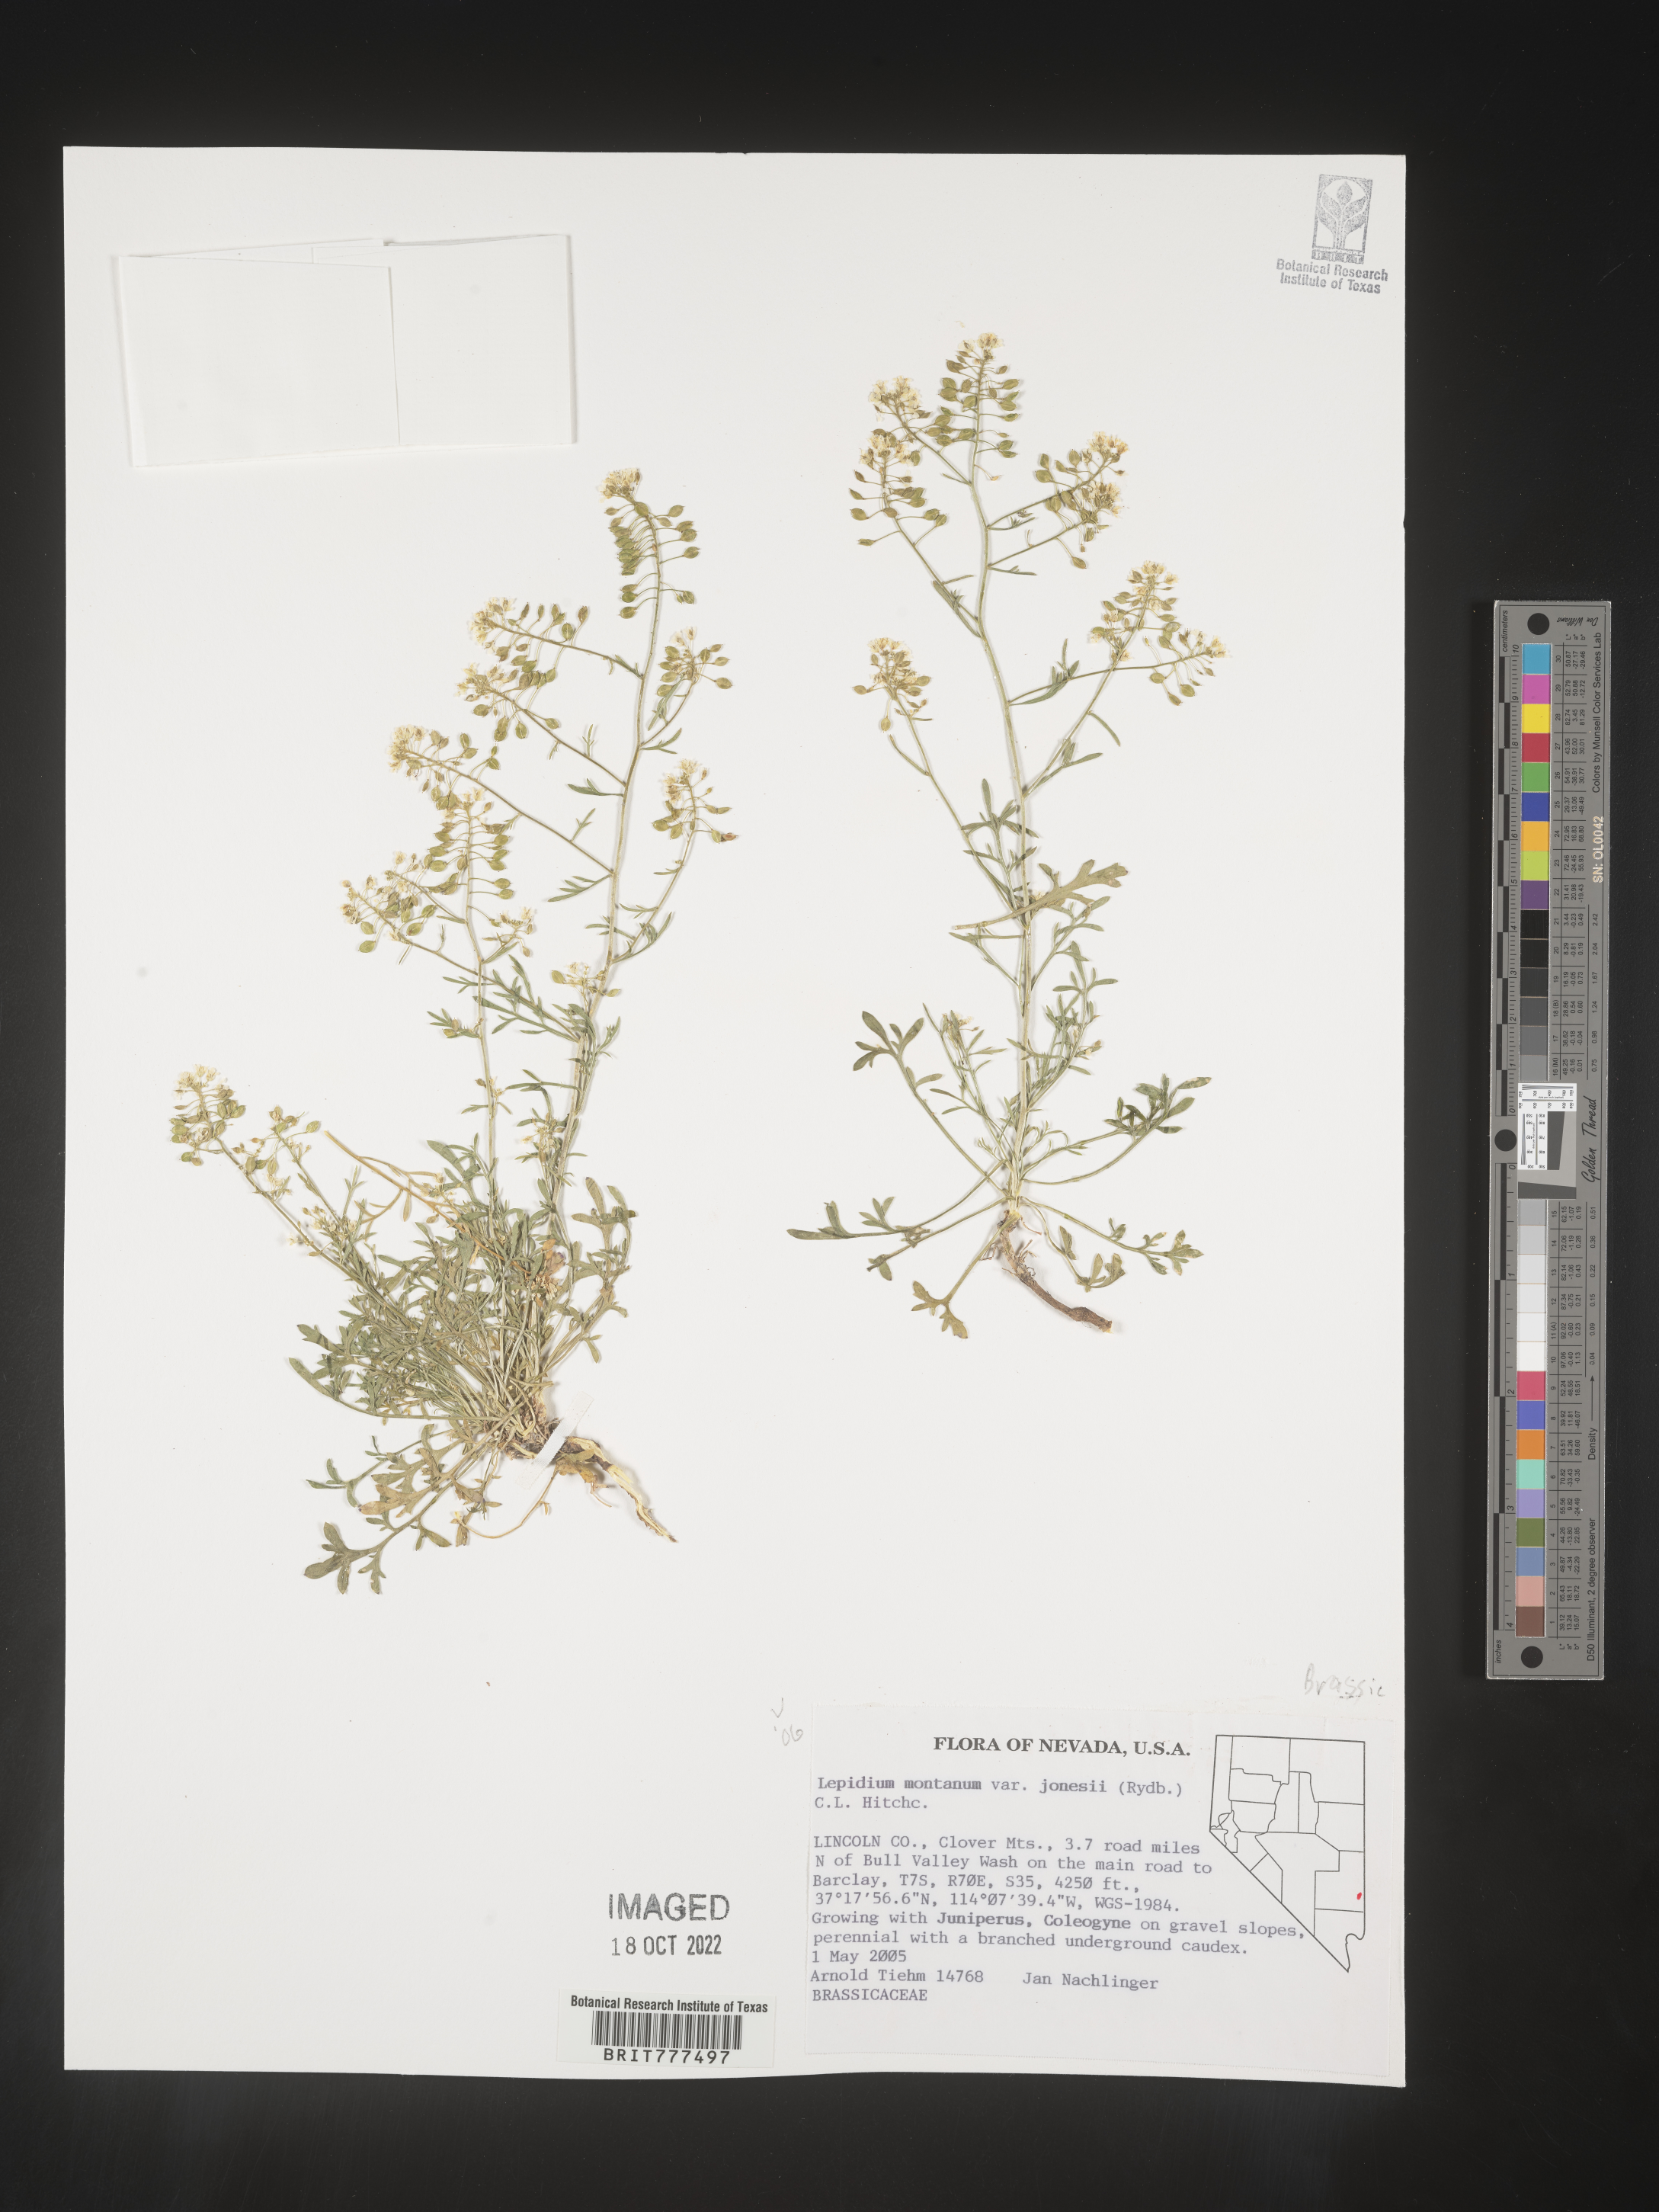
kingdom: Plantae
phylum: Tracheophyta
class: Magnoliopsida
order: Brassicales
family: Brassicaceae
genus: Lepidium
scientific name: Lepidium montanum
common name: Mountain pepperplant
